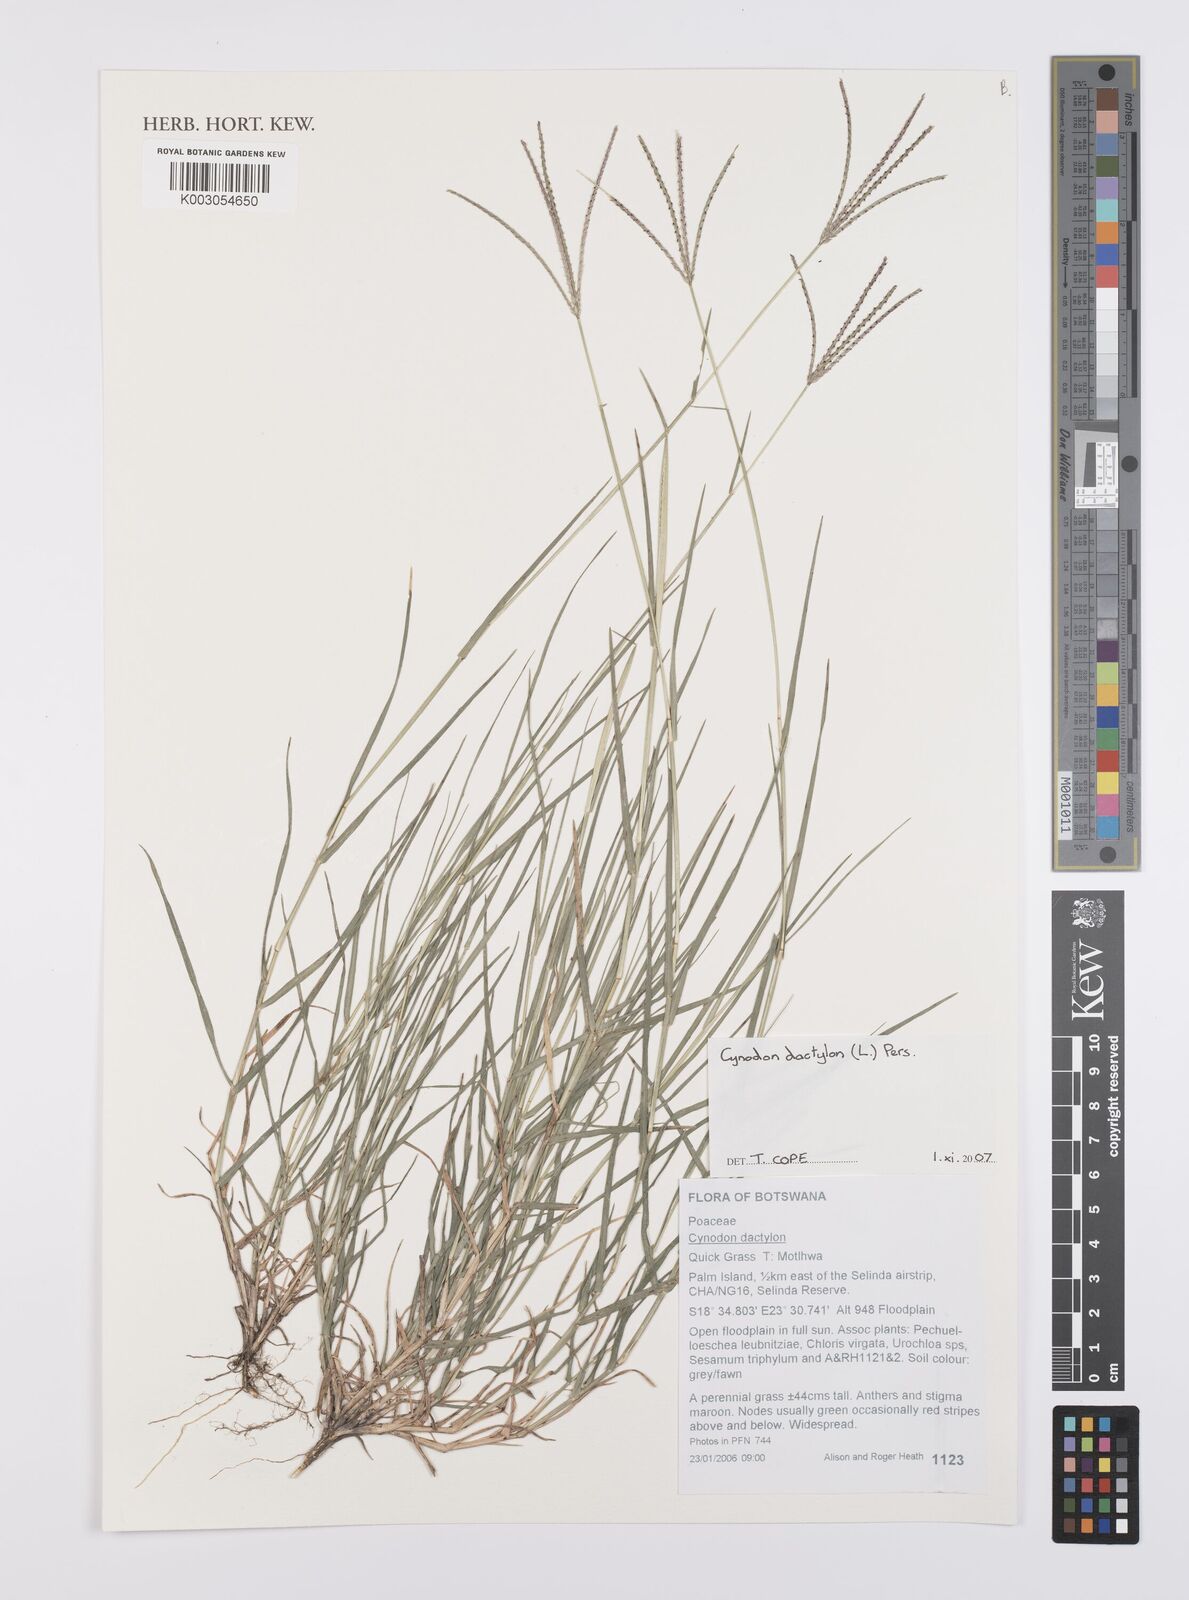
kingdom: Plantae
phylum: Tracheophyta
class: Liliopsida
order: Poales
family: Poaceae
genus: Cynodon
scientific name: Cynodon dactylon
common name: Bermuda grass
